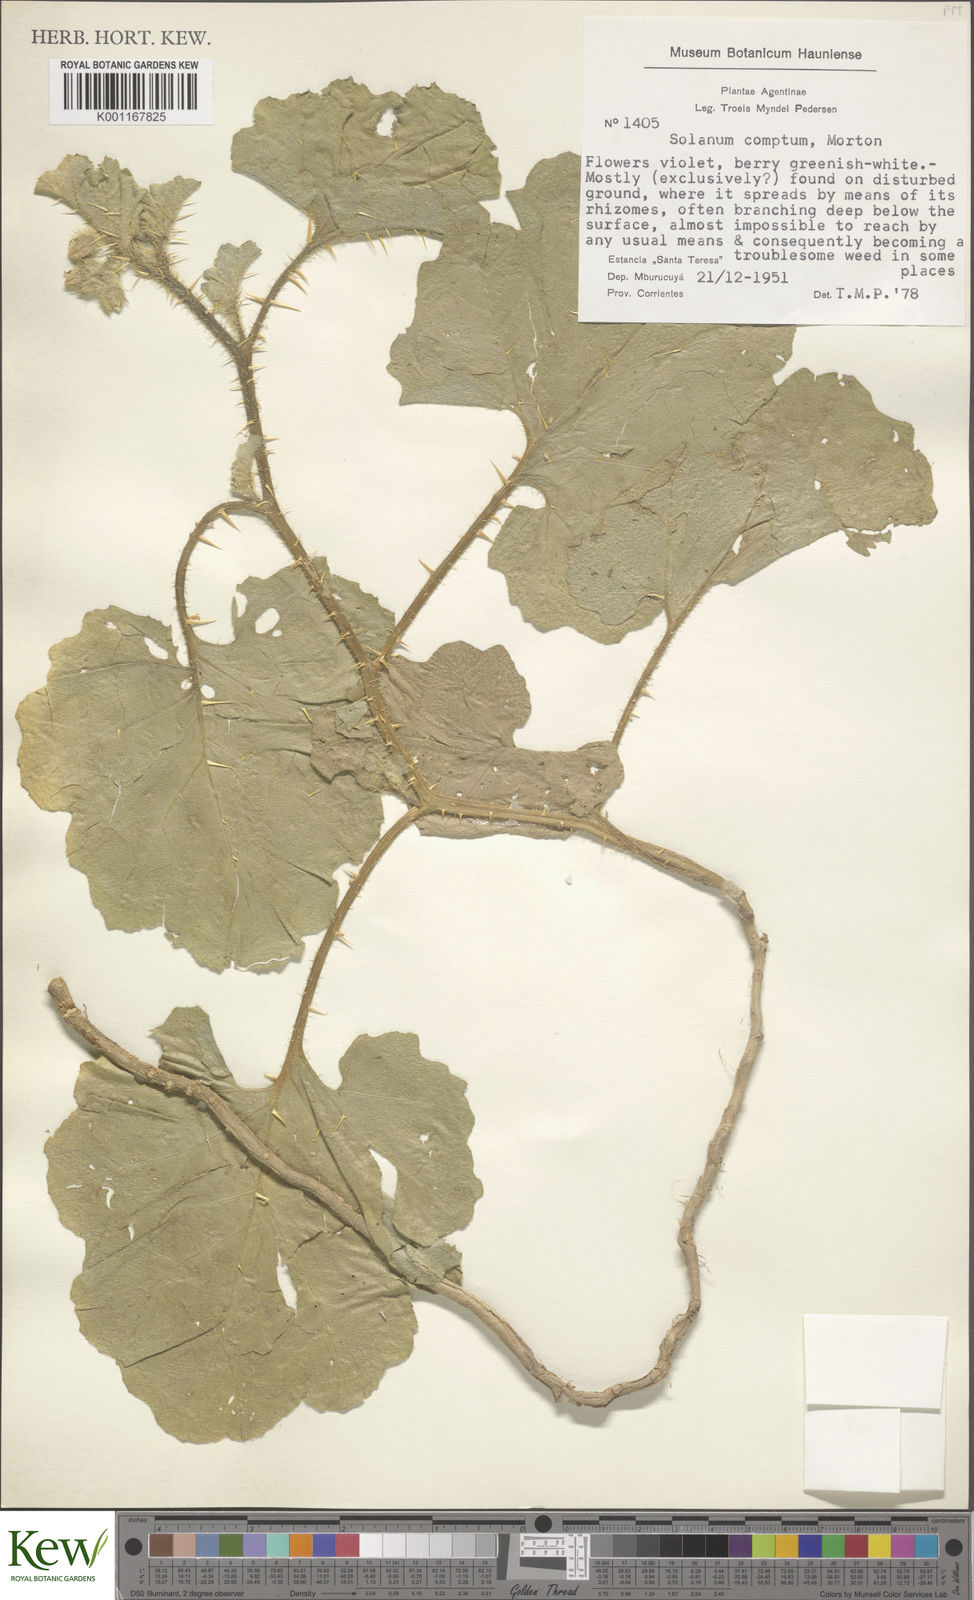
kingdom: Plantae
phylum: Tracheophyta
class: Magnoliopsida
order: Solanales
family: Solanaceae
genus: Solanum
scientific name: Solanum comptum
